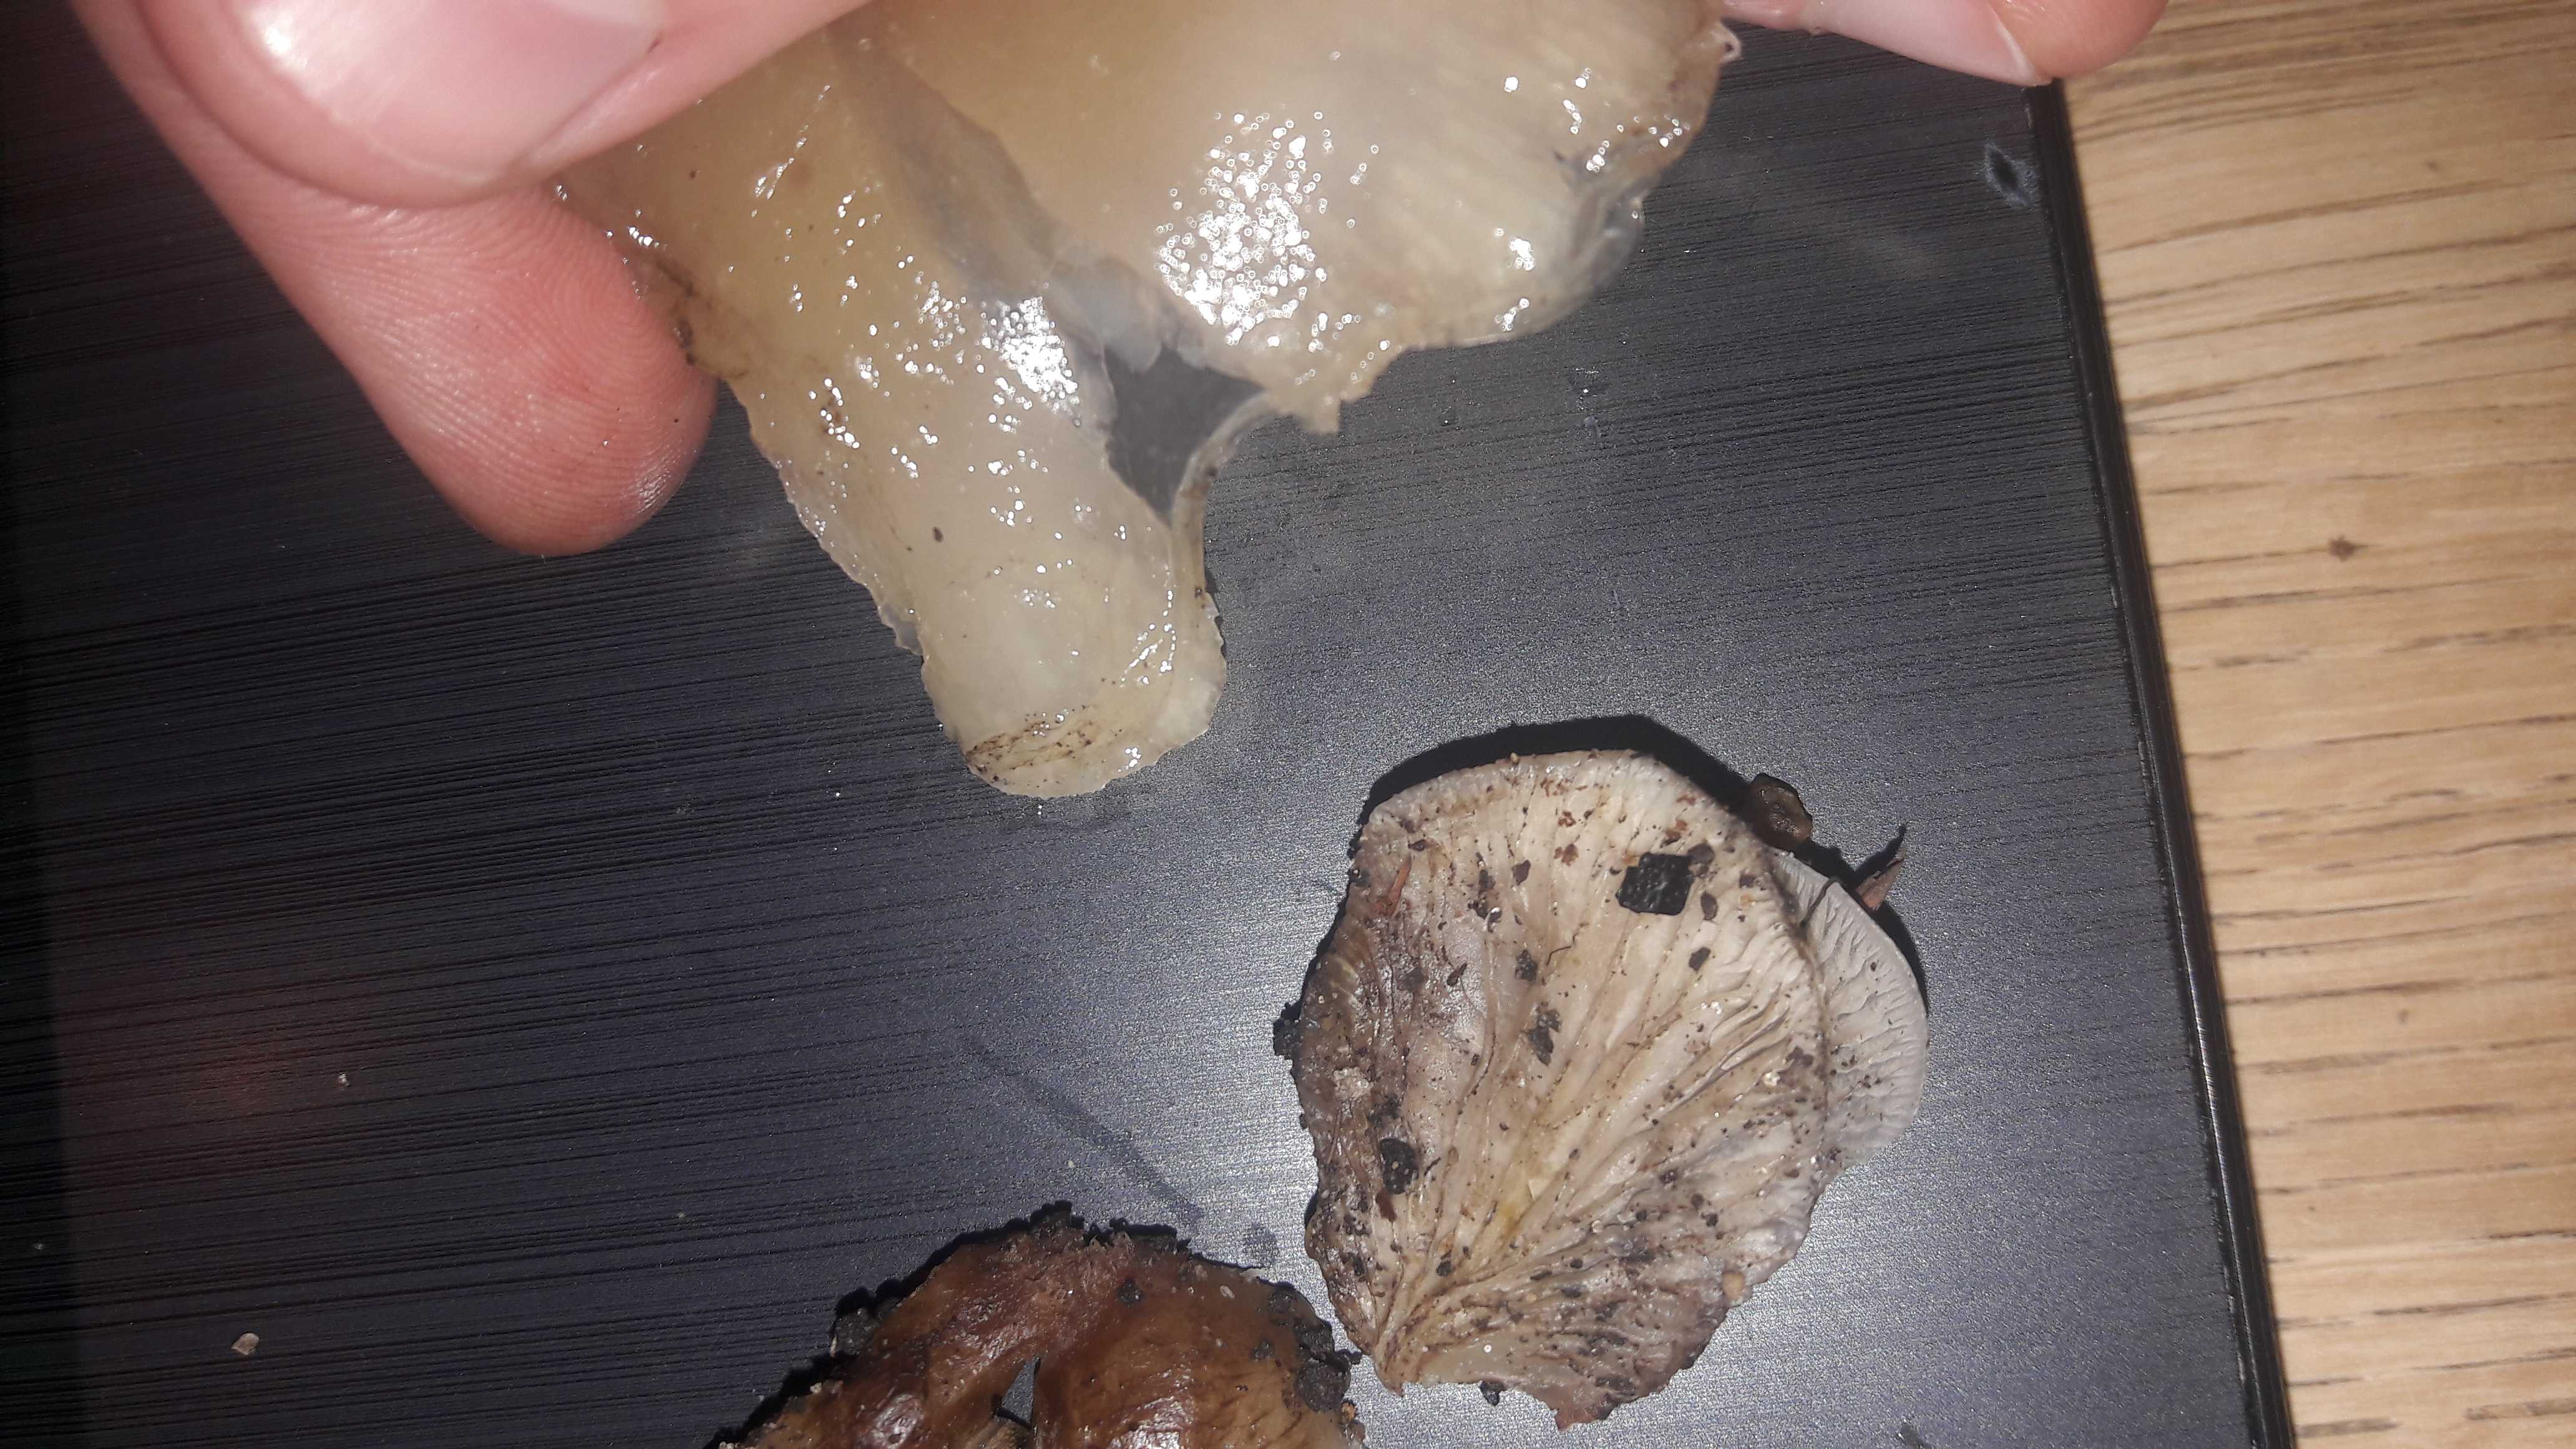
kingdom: Fungi
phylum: Basidiomycota
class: Agaricomycetes
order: Agaricales
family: Crepidotaceae
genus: Crepidotus
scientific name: Crepidotus mollis
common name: blød muslingesvamp
